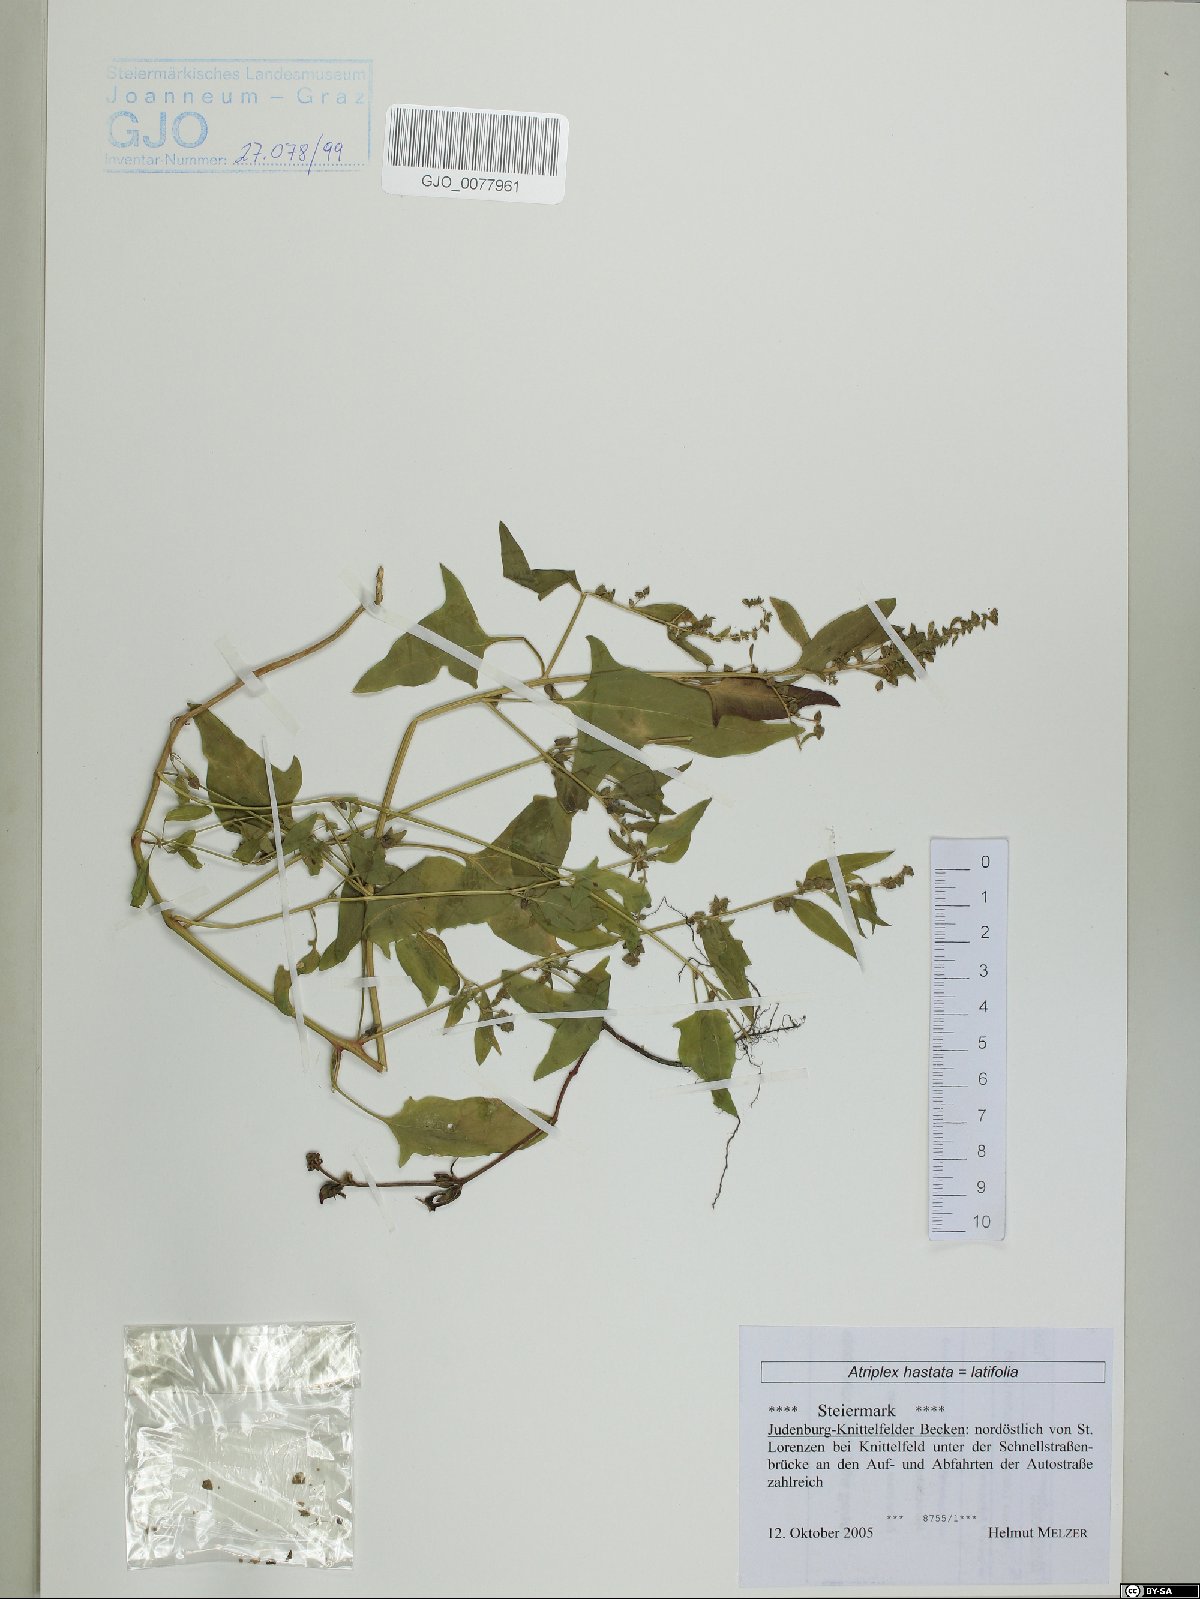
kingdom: Plantae
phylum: Tracheophyta
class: Magnoliopsida
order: Caryophyllales
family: Amaranthaceae
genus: Atriplex
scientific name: Atriplex calotheca
